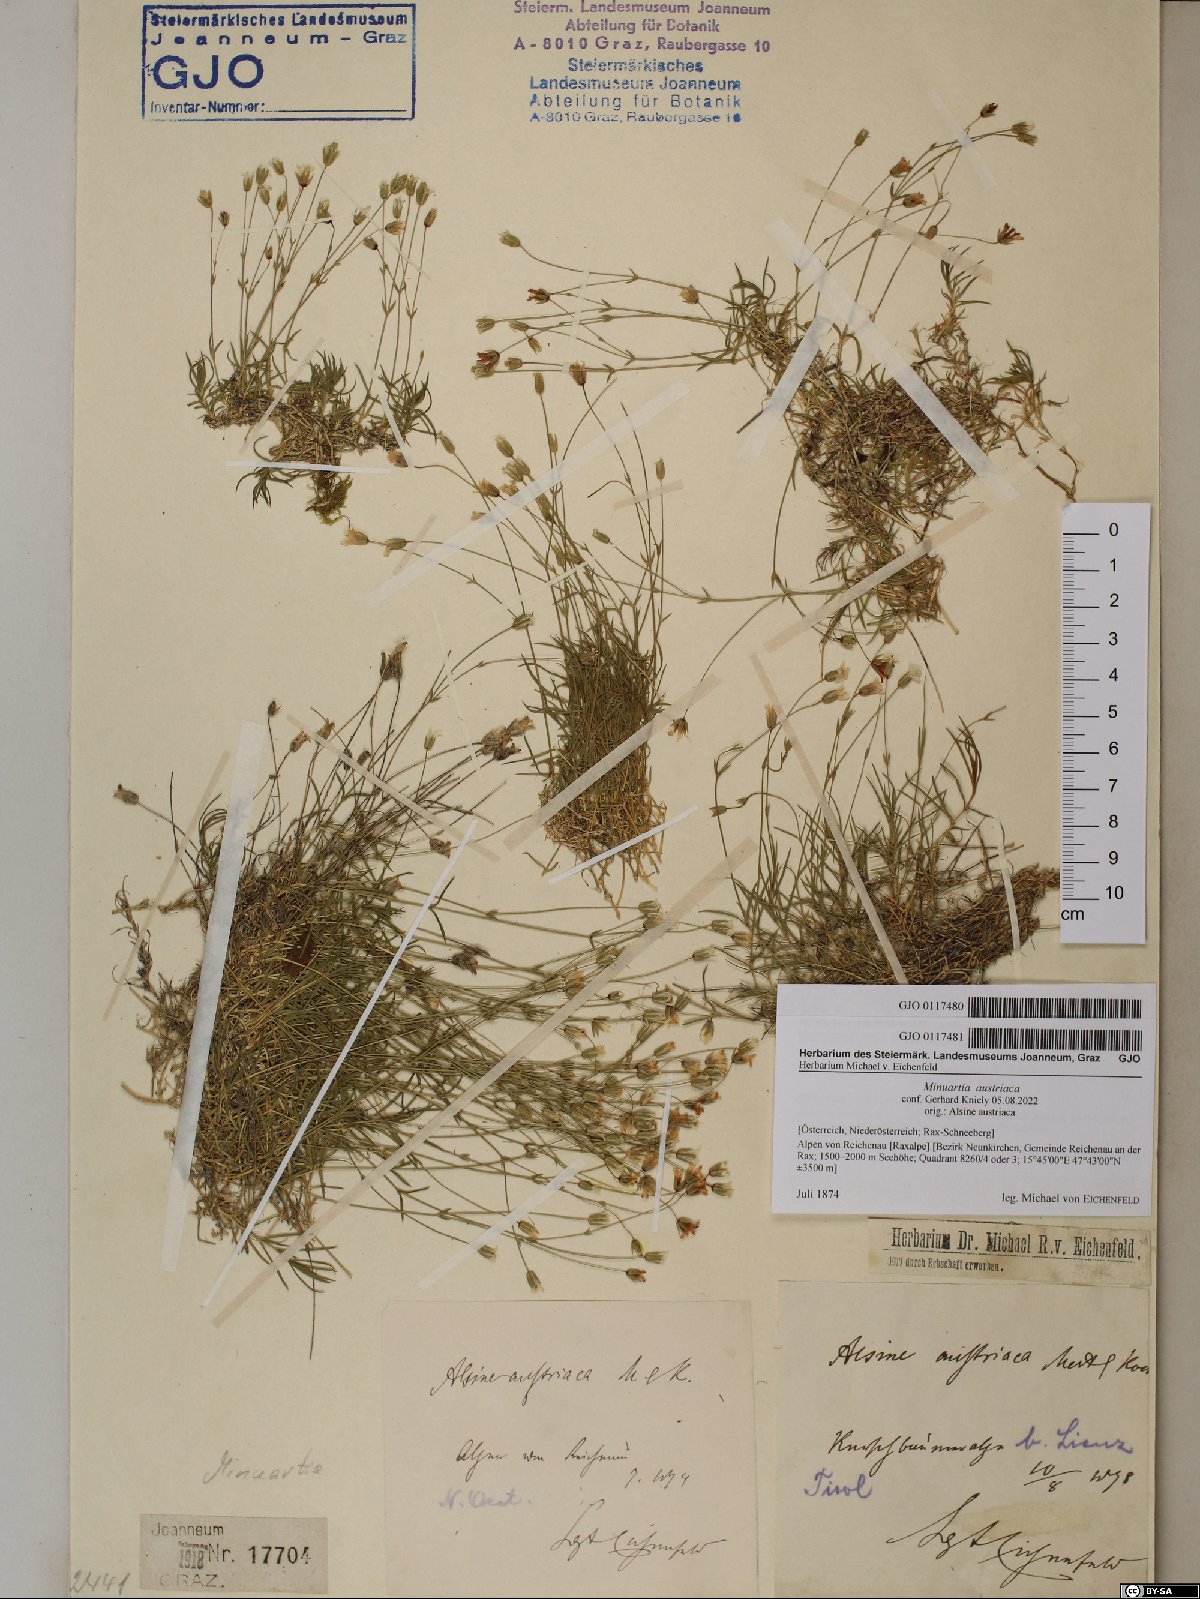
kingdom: Plantae
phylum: Tracheophyta
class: Magnoliopsida
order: Caryophyllales
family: Caryophyllaceae
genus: Sabulina
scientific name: Sabulina austriaca
